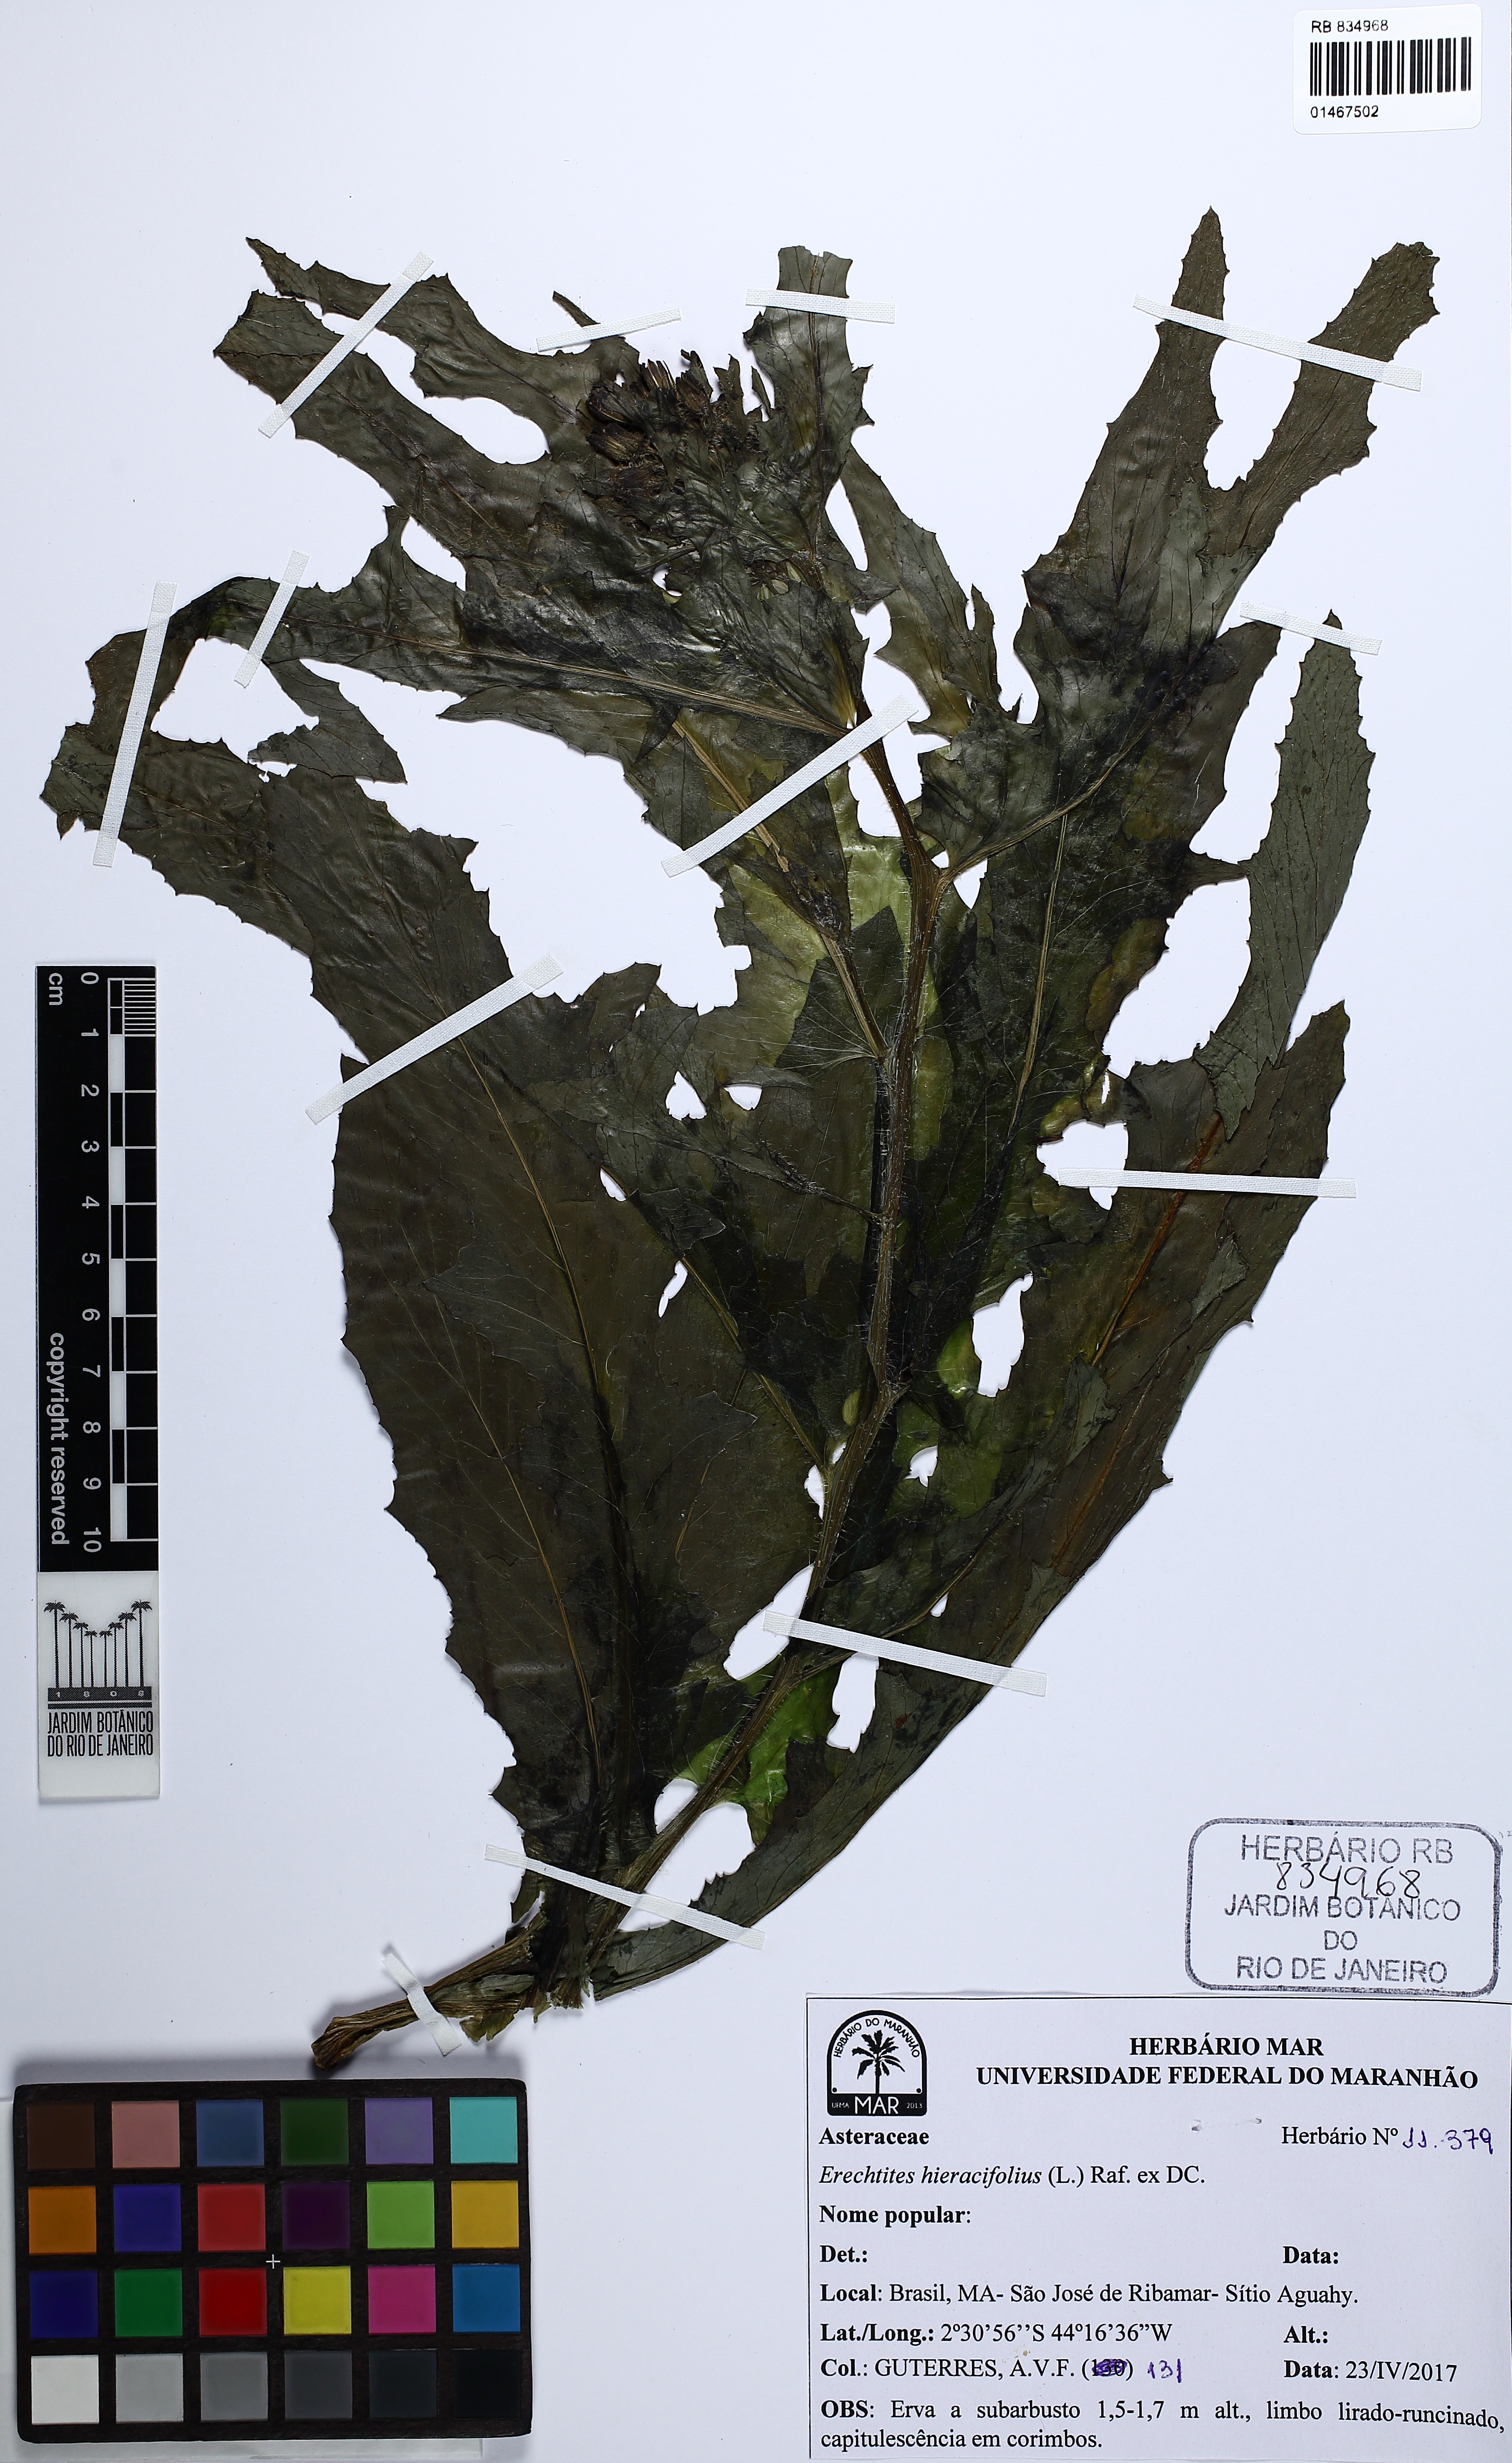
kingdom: Plantae
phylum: Tracheophyta
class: Magnoliopsida
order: Asterales
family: Asteraceae
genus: Erechtites
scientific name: Erechtites hieraciifolius
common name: American burnweed
